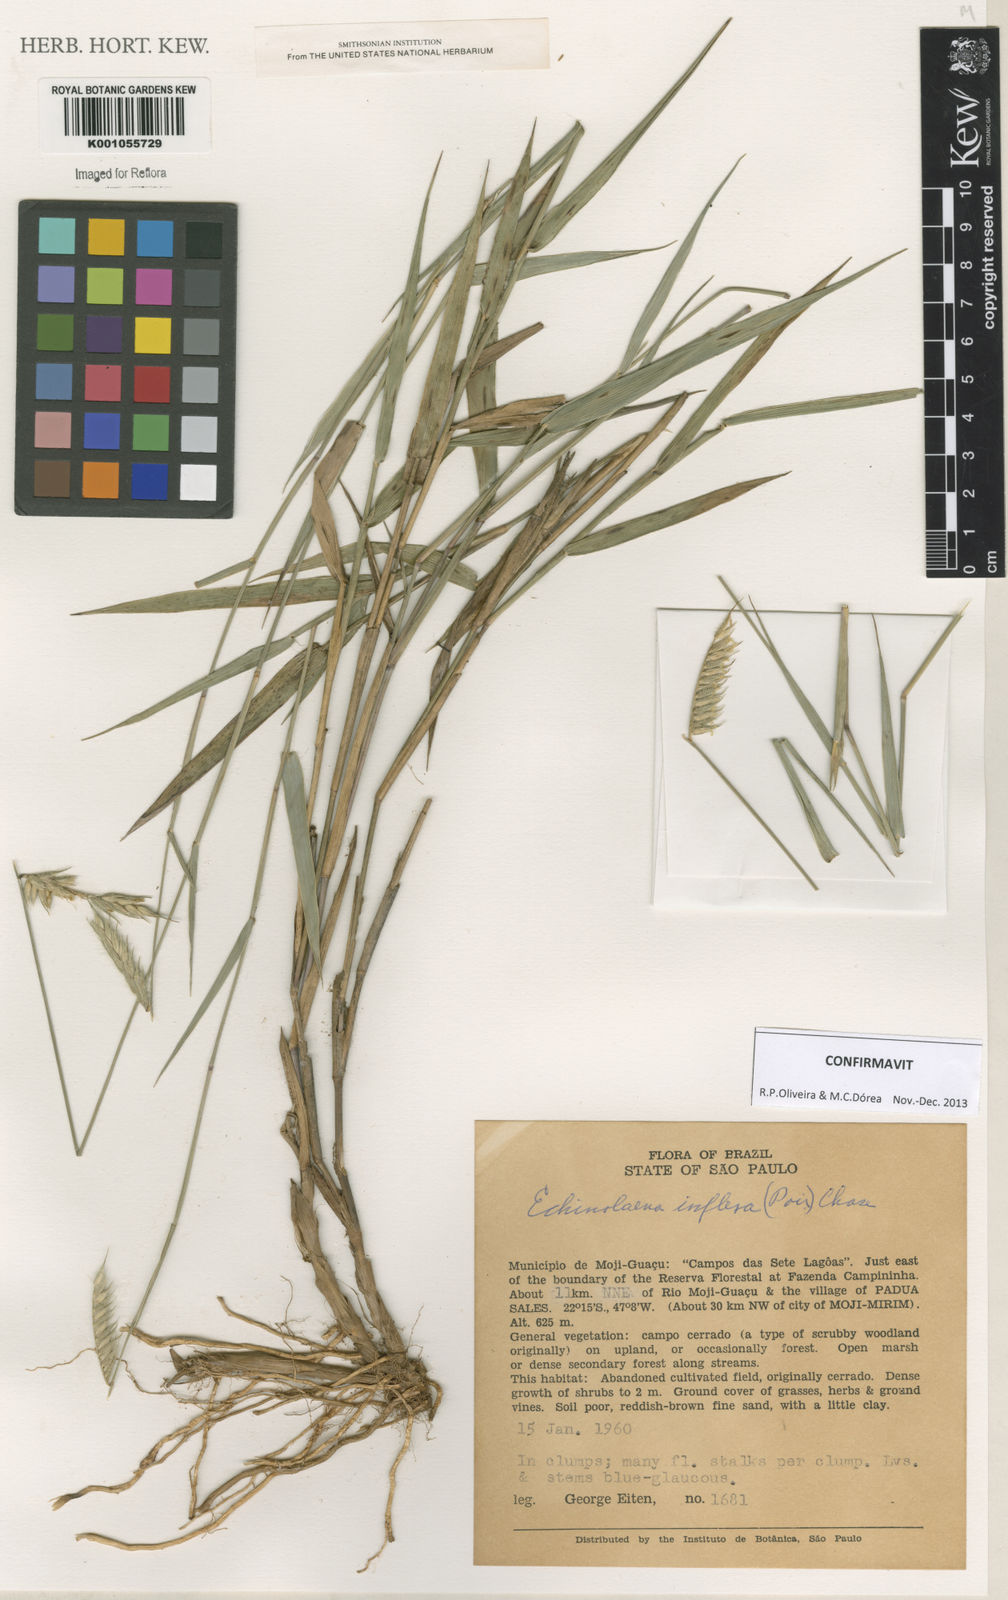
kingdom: Plantae
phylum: Tracheophyta
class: Liliopsida
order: Poales
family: Poaceae
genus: Echinolaena
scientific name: Echinolaena inflexa
